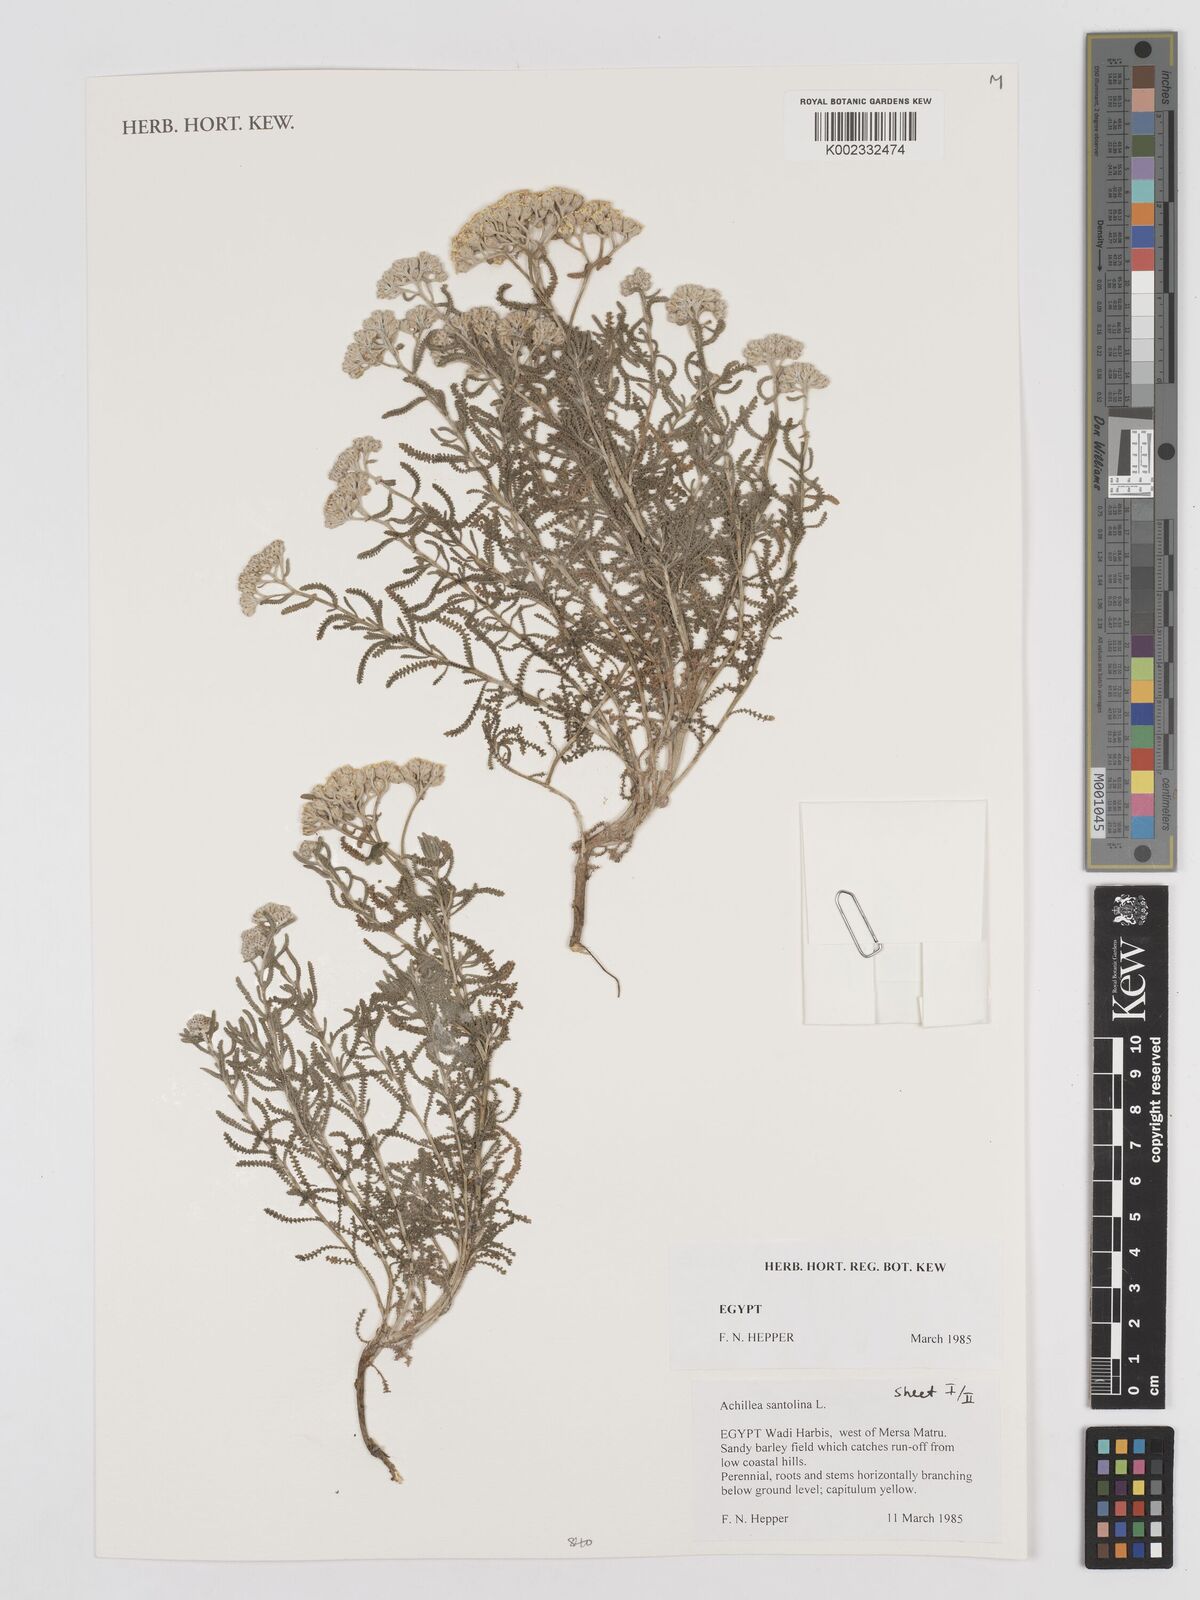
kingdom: Plantae
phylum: Tracheophyta
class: Magnoliopsida
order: Asterales
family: Asteraceae
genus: Achillea
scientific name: Achillea tenuifolia
